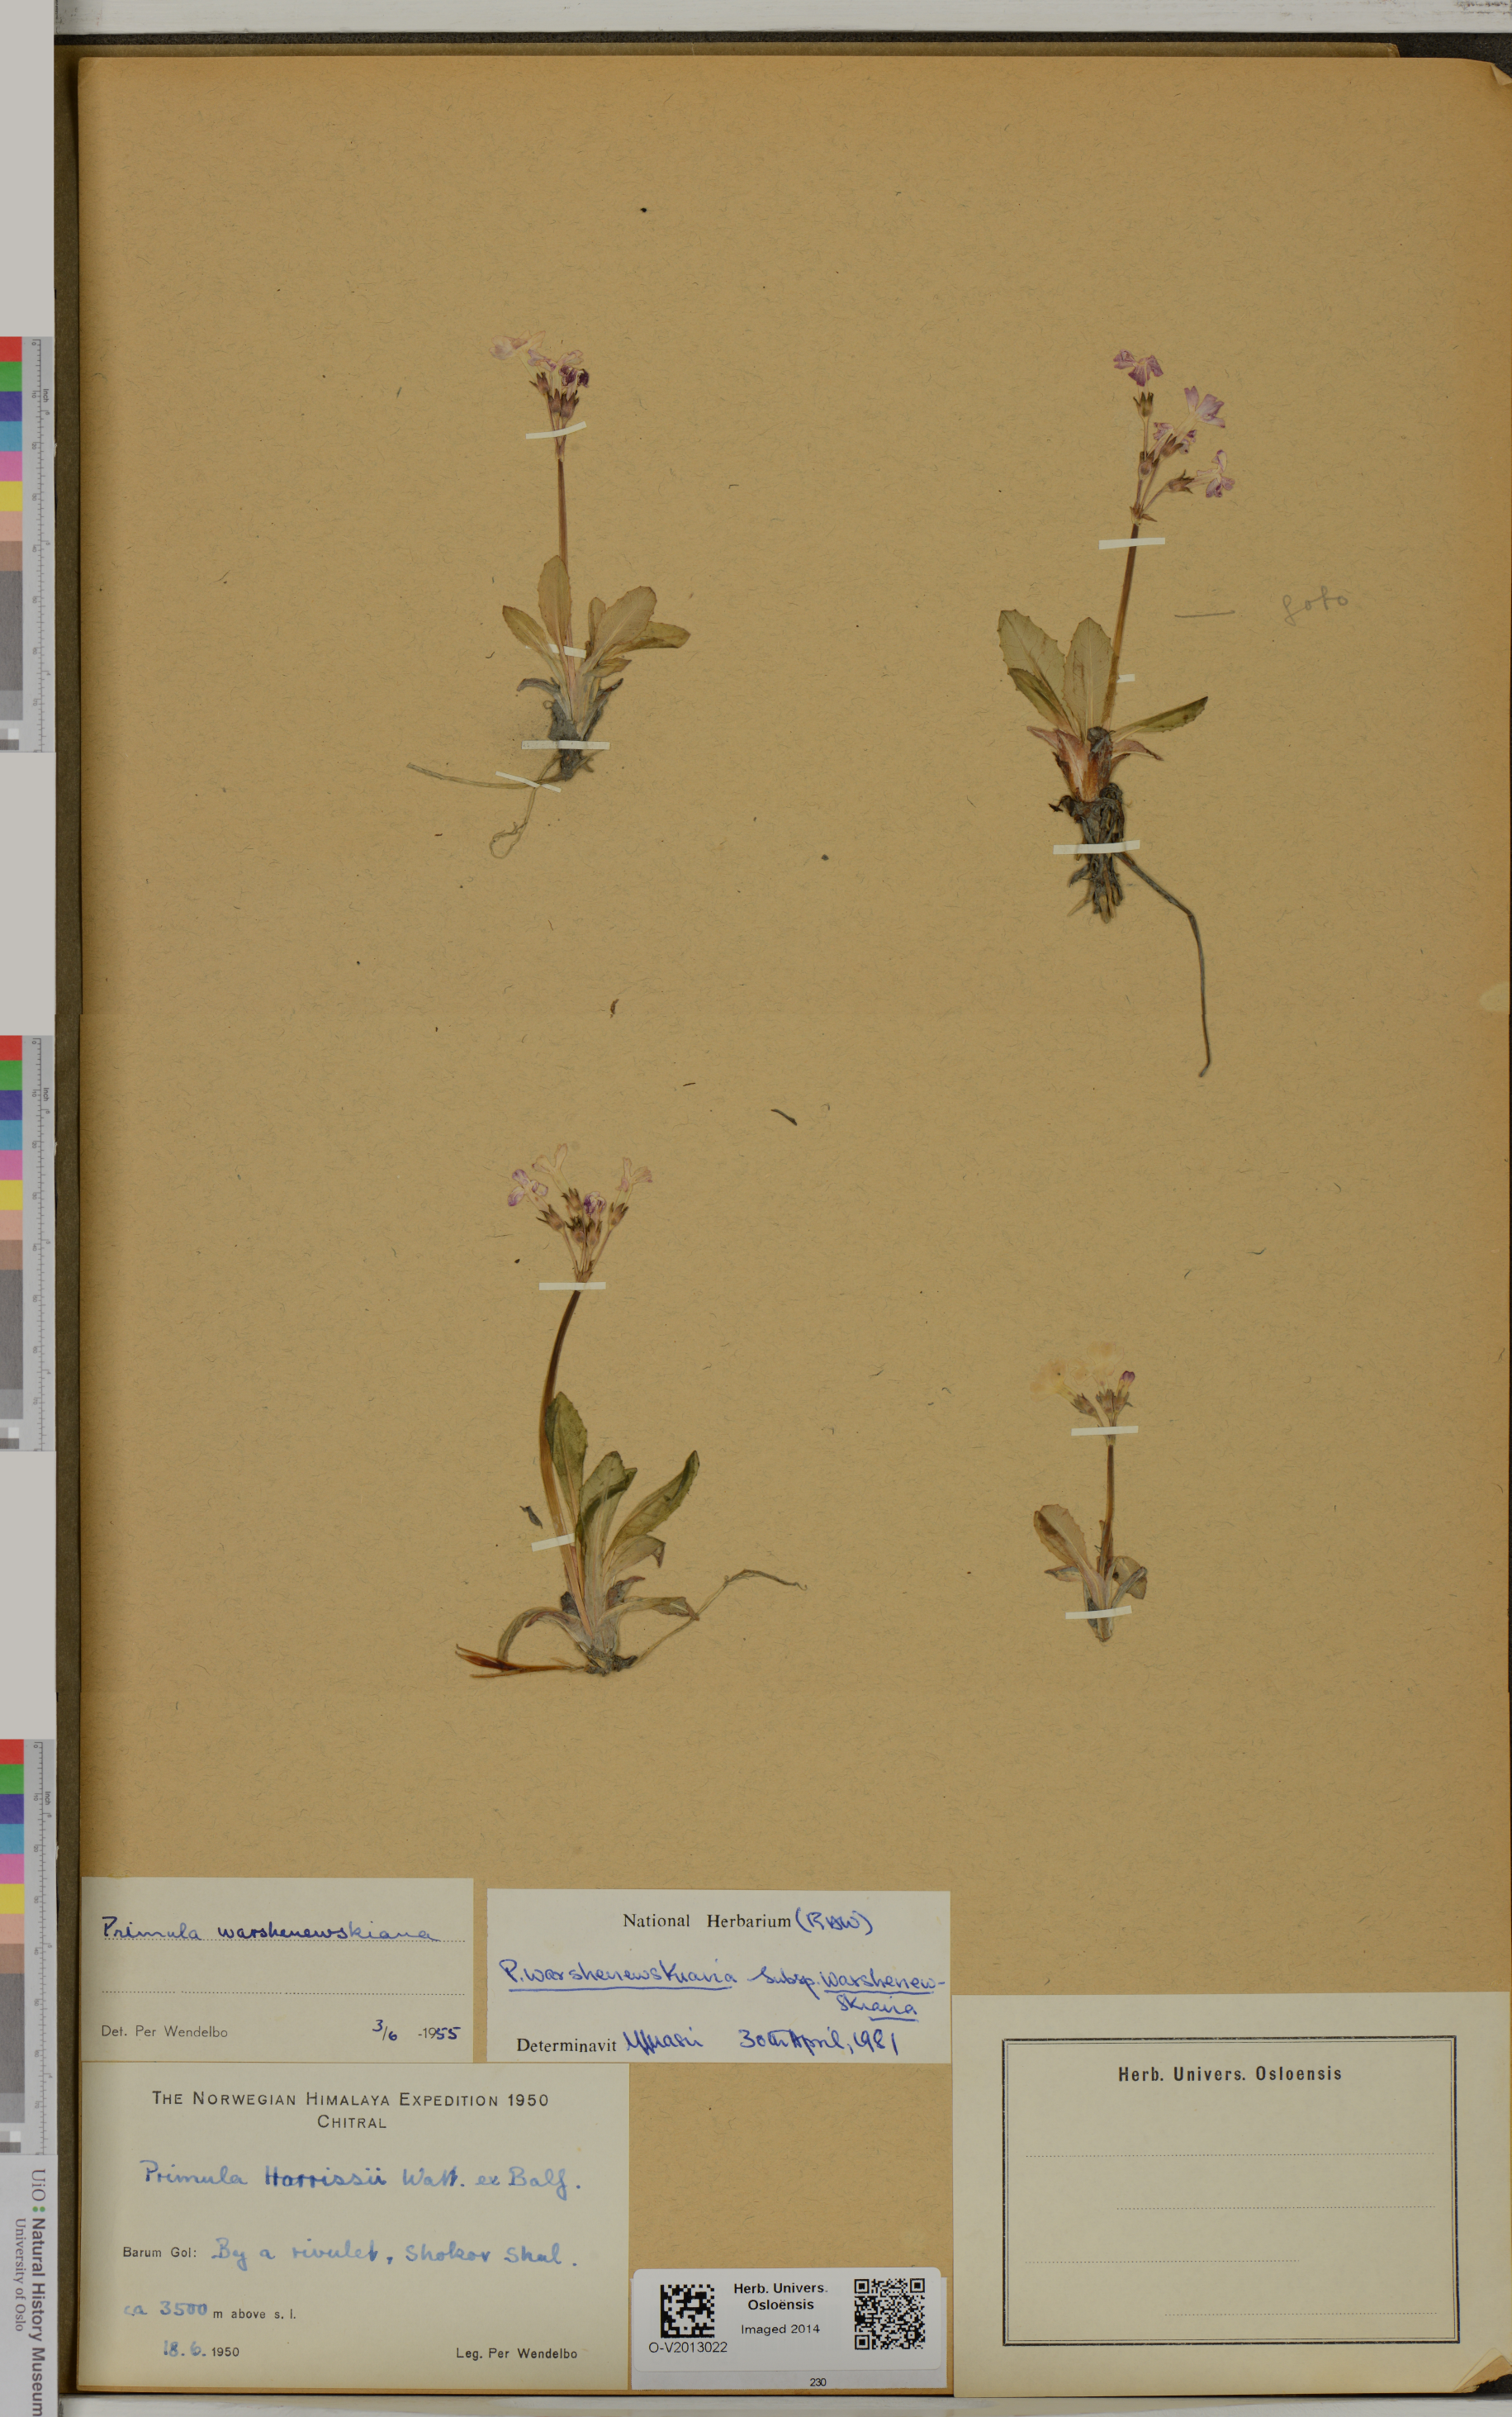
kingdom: Plantae
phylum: Tracheophyta
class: Magnoliopsida
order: Ericales
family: Primulaceae
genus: Primula
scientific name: Primula warshenewskiana
